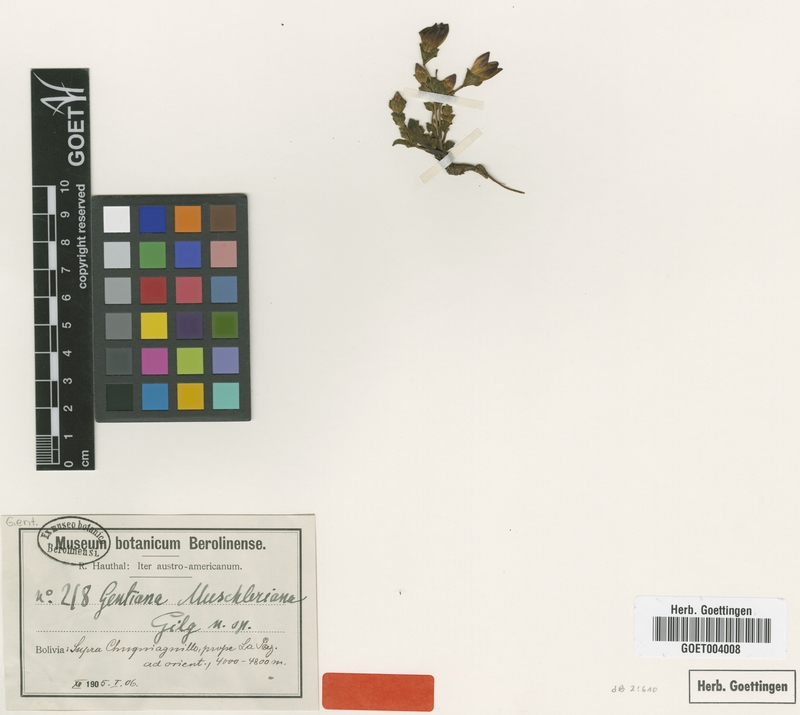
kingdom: Plantae
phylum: Tracheophyta
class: Magnoliopsida
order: Gentianales
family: Gentianaceae
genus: Gentiana
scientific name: Gentiana
